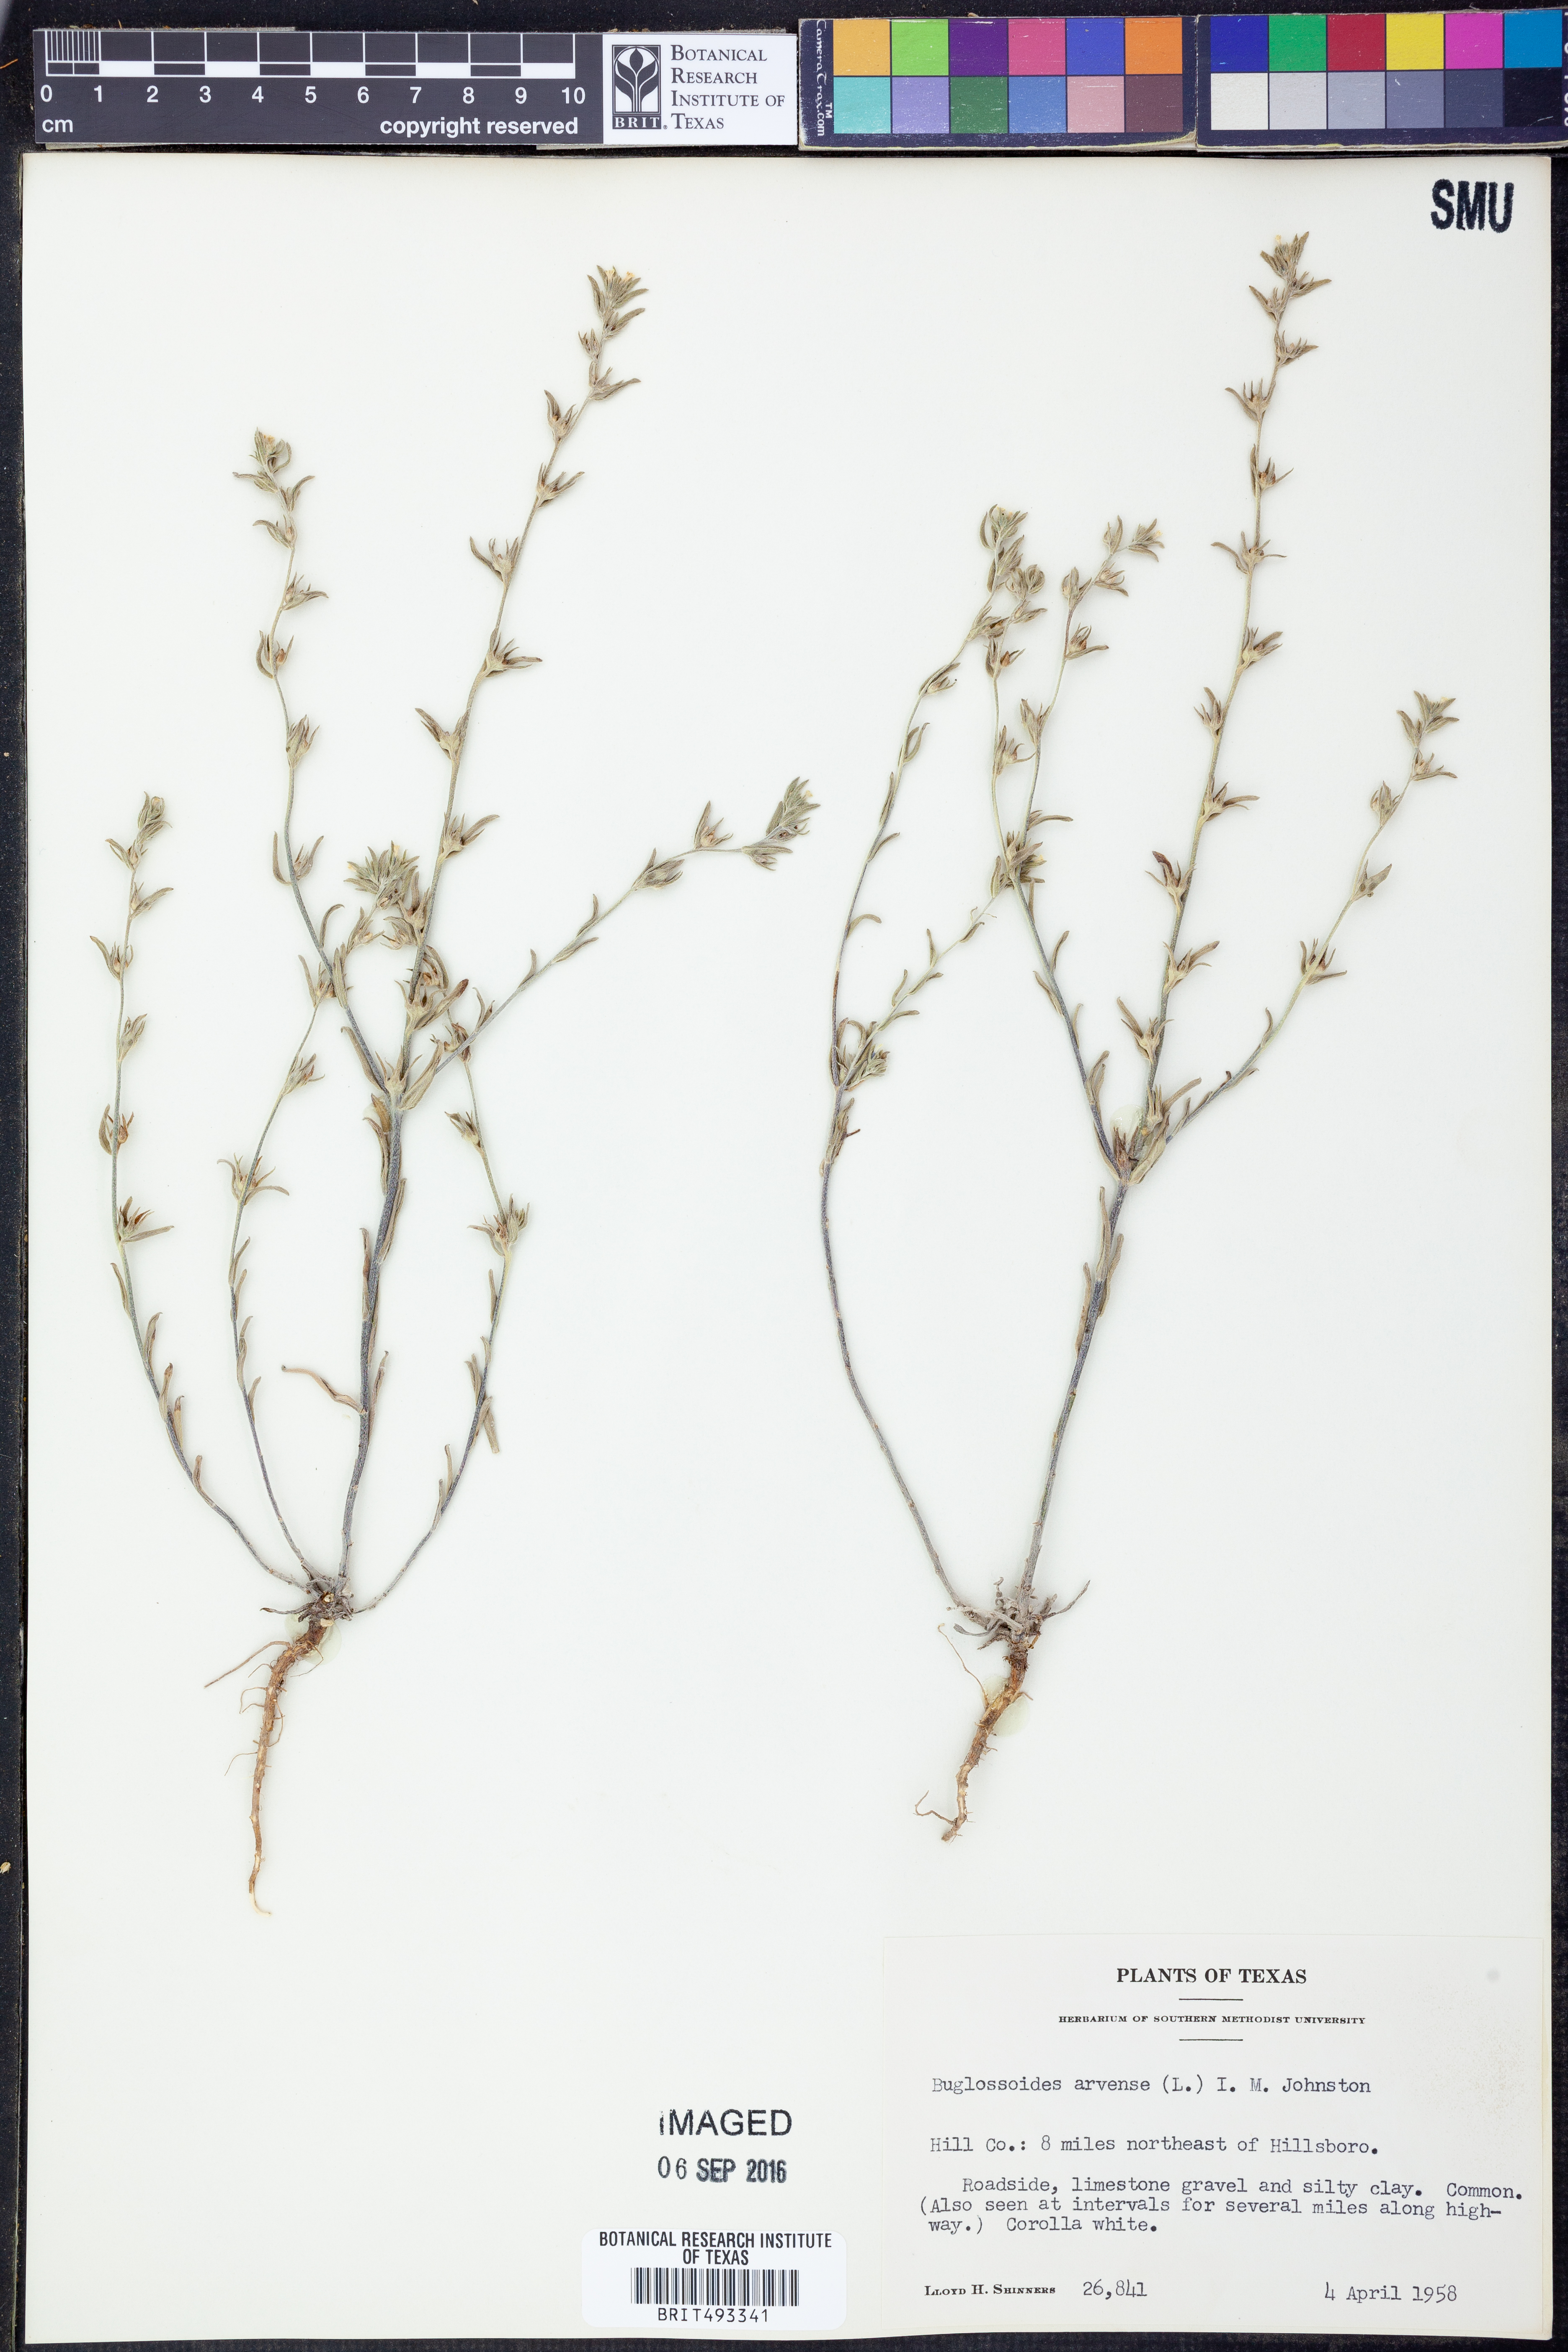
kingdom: Plantae
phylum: Tracheophyta
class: Magnoliopsida
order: Boraginales
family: Boraginaceae
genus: Buglossoides
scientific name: Buglossoides arvensis
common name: Corn gromwell
